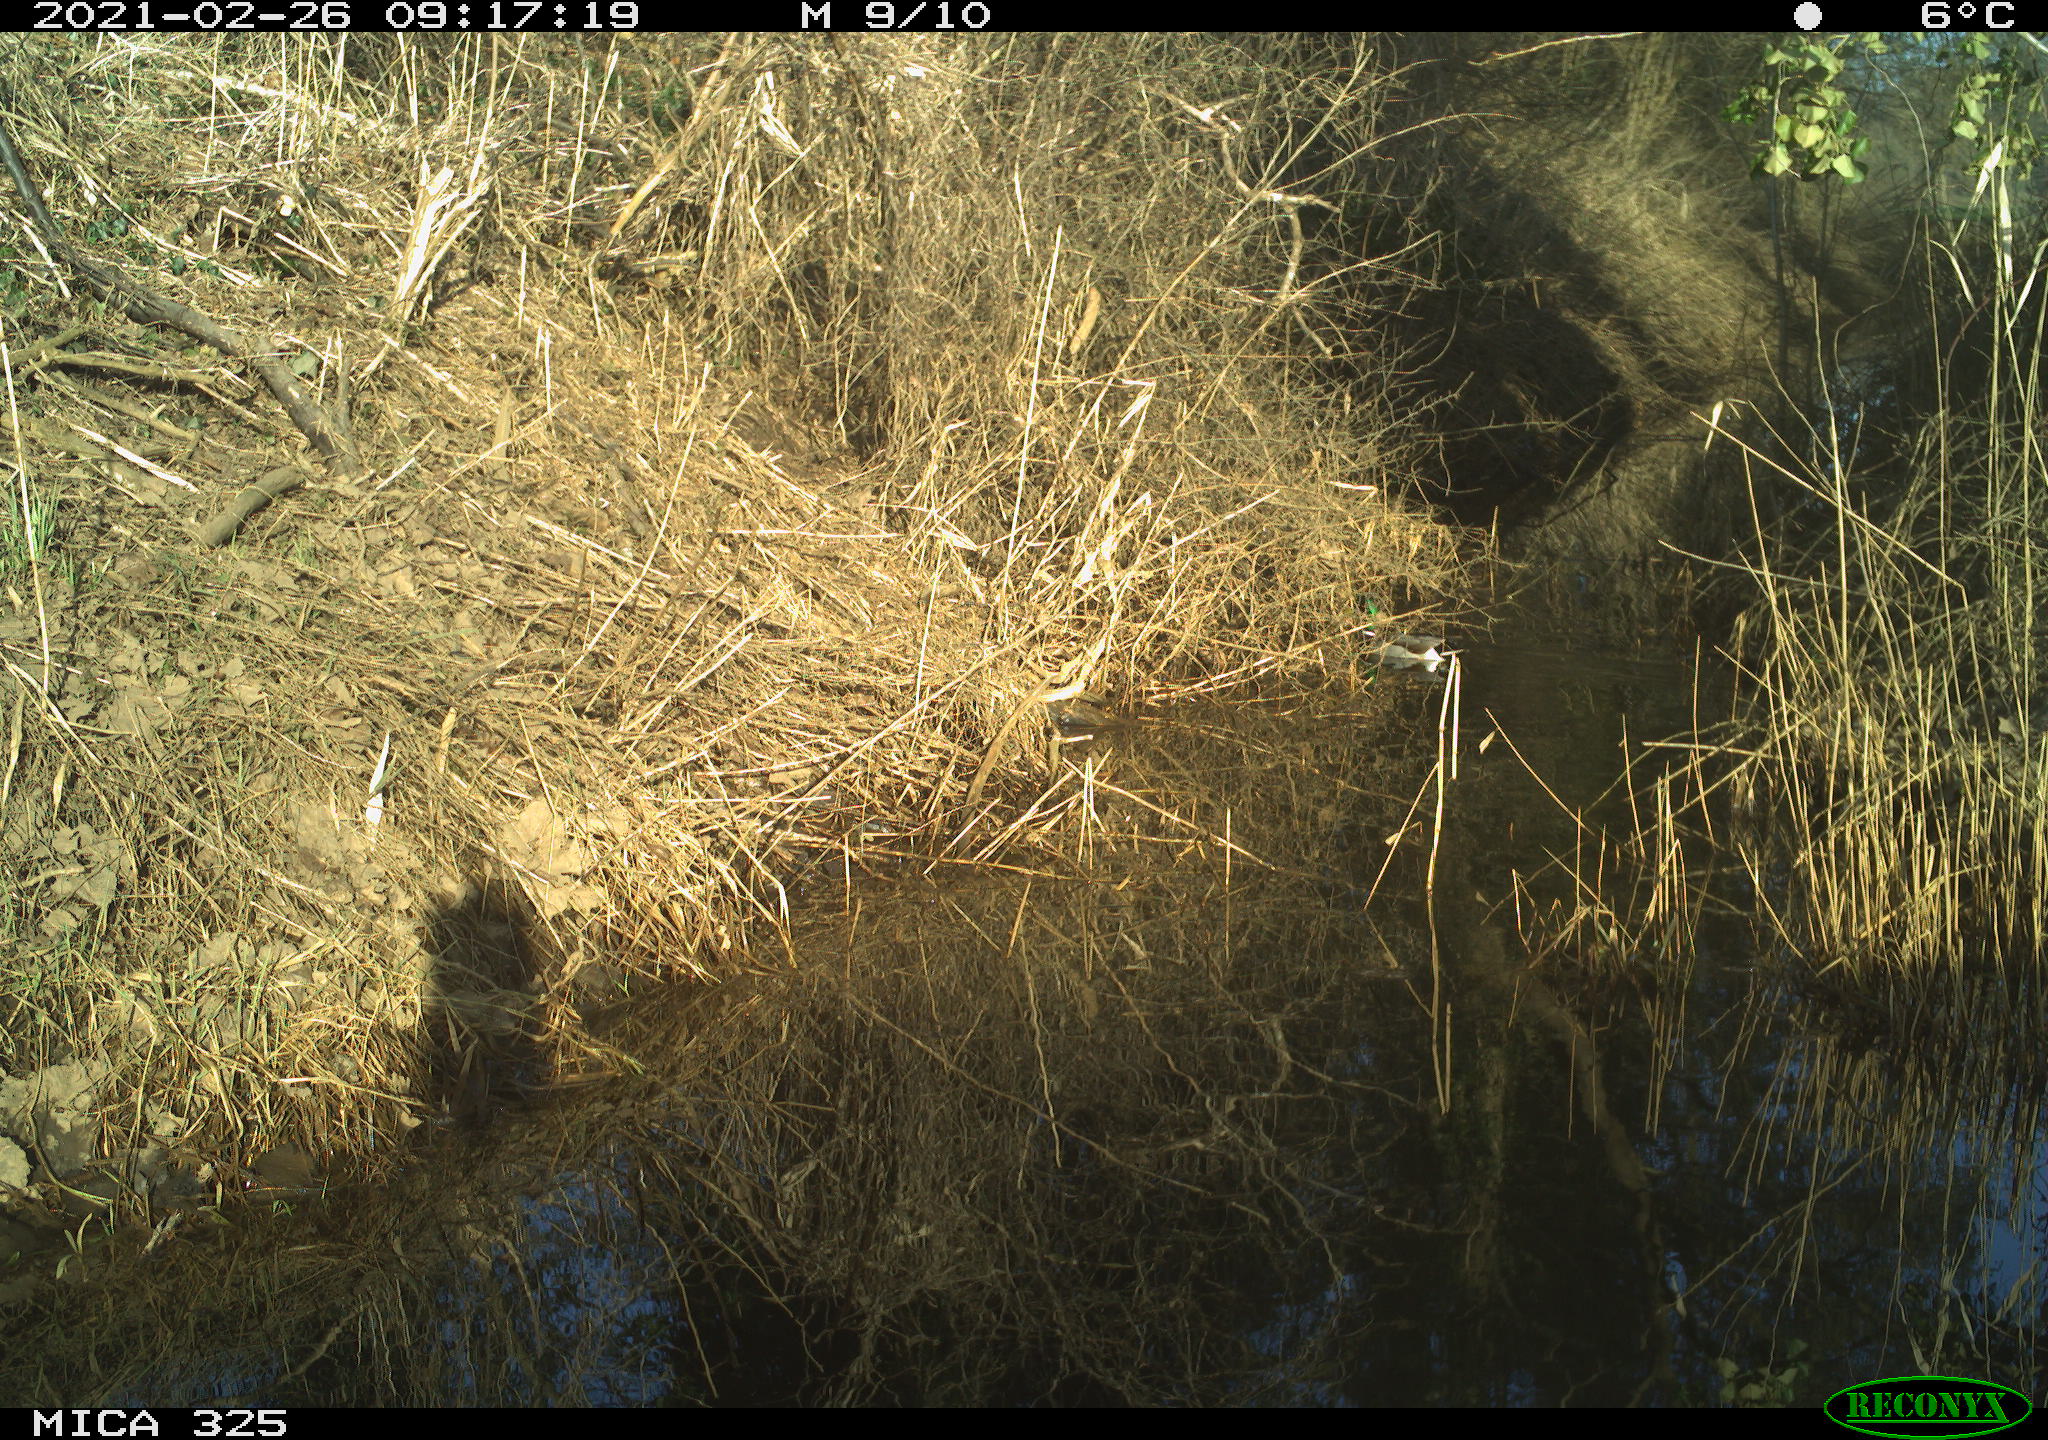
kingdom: Animalia
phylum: Chordata
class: Aves
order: Anseriformes
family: Anatidae
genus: Anas
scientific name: Anas platyrhynchos
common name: Mallard
